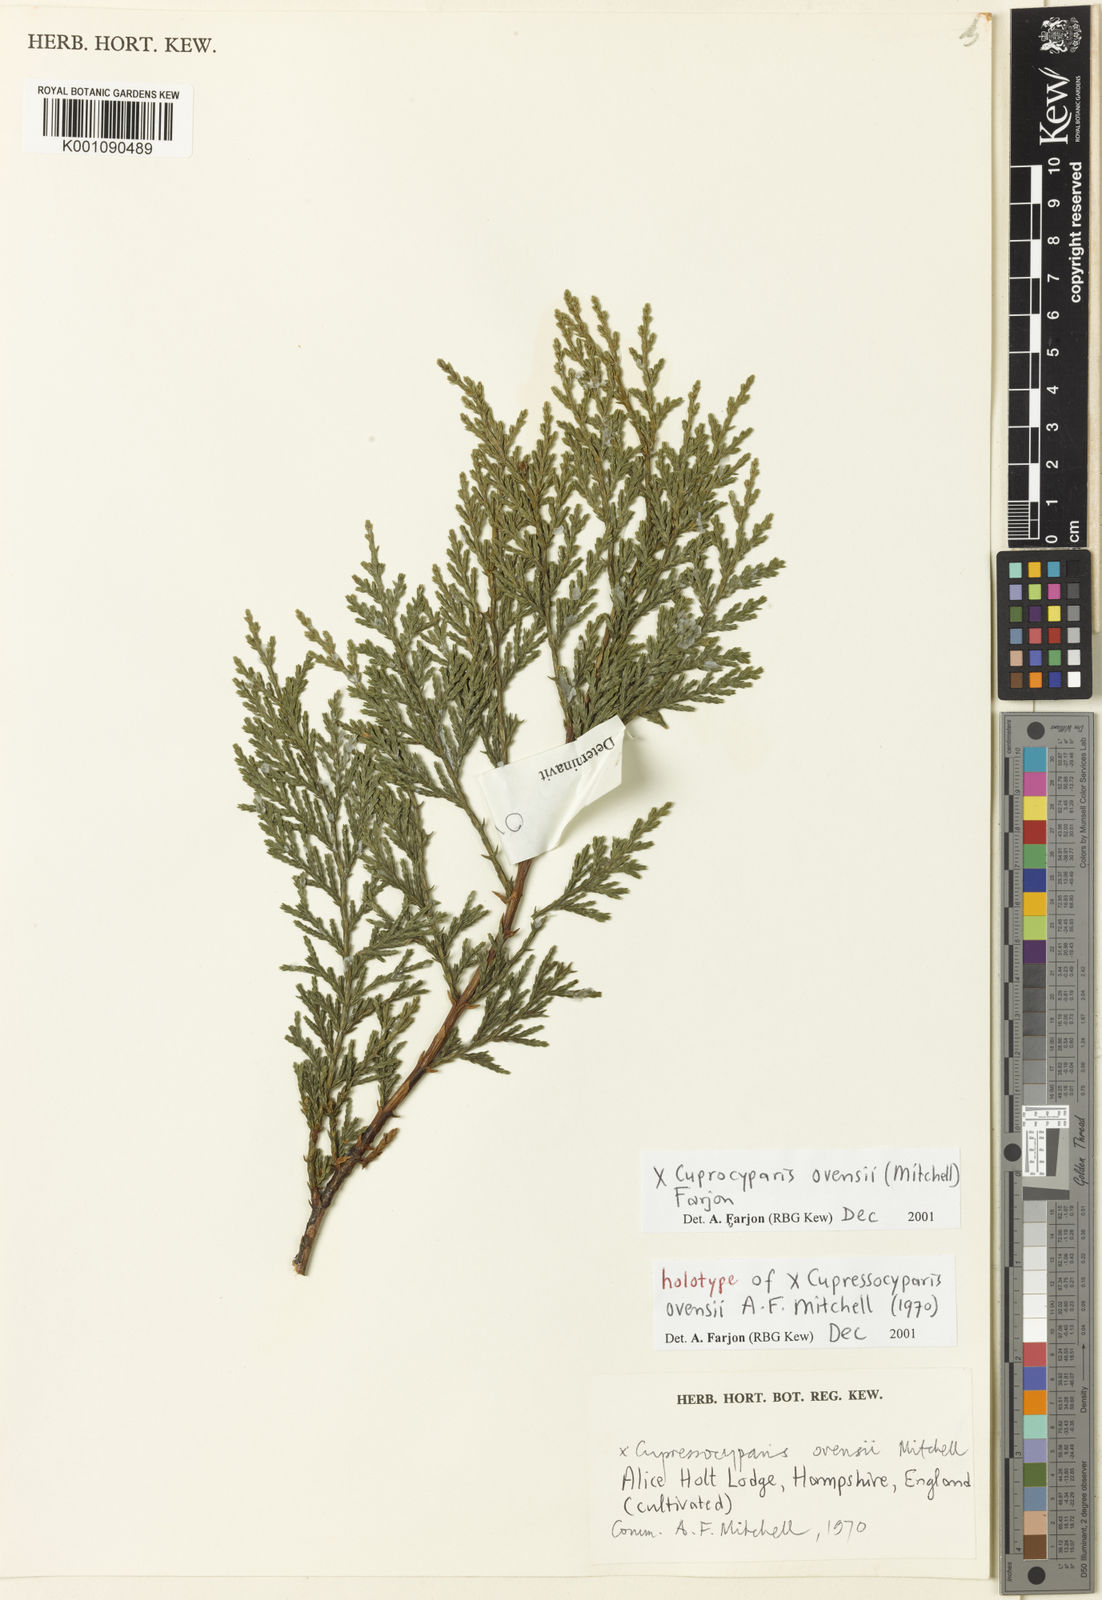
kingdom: Plantae
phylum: Tracheophyta
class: Pinopsida
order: Pinales
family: Cupressaceae
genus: Hesperotropsis
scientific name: Hesperotropsis ovensii
